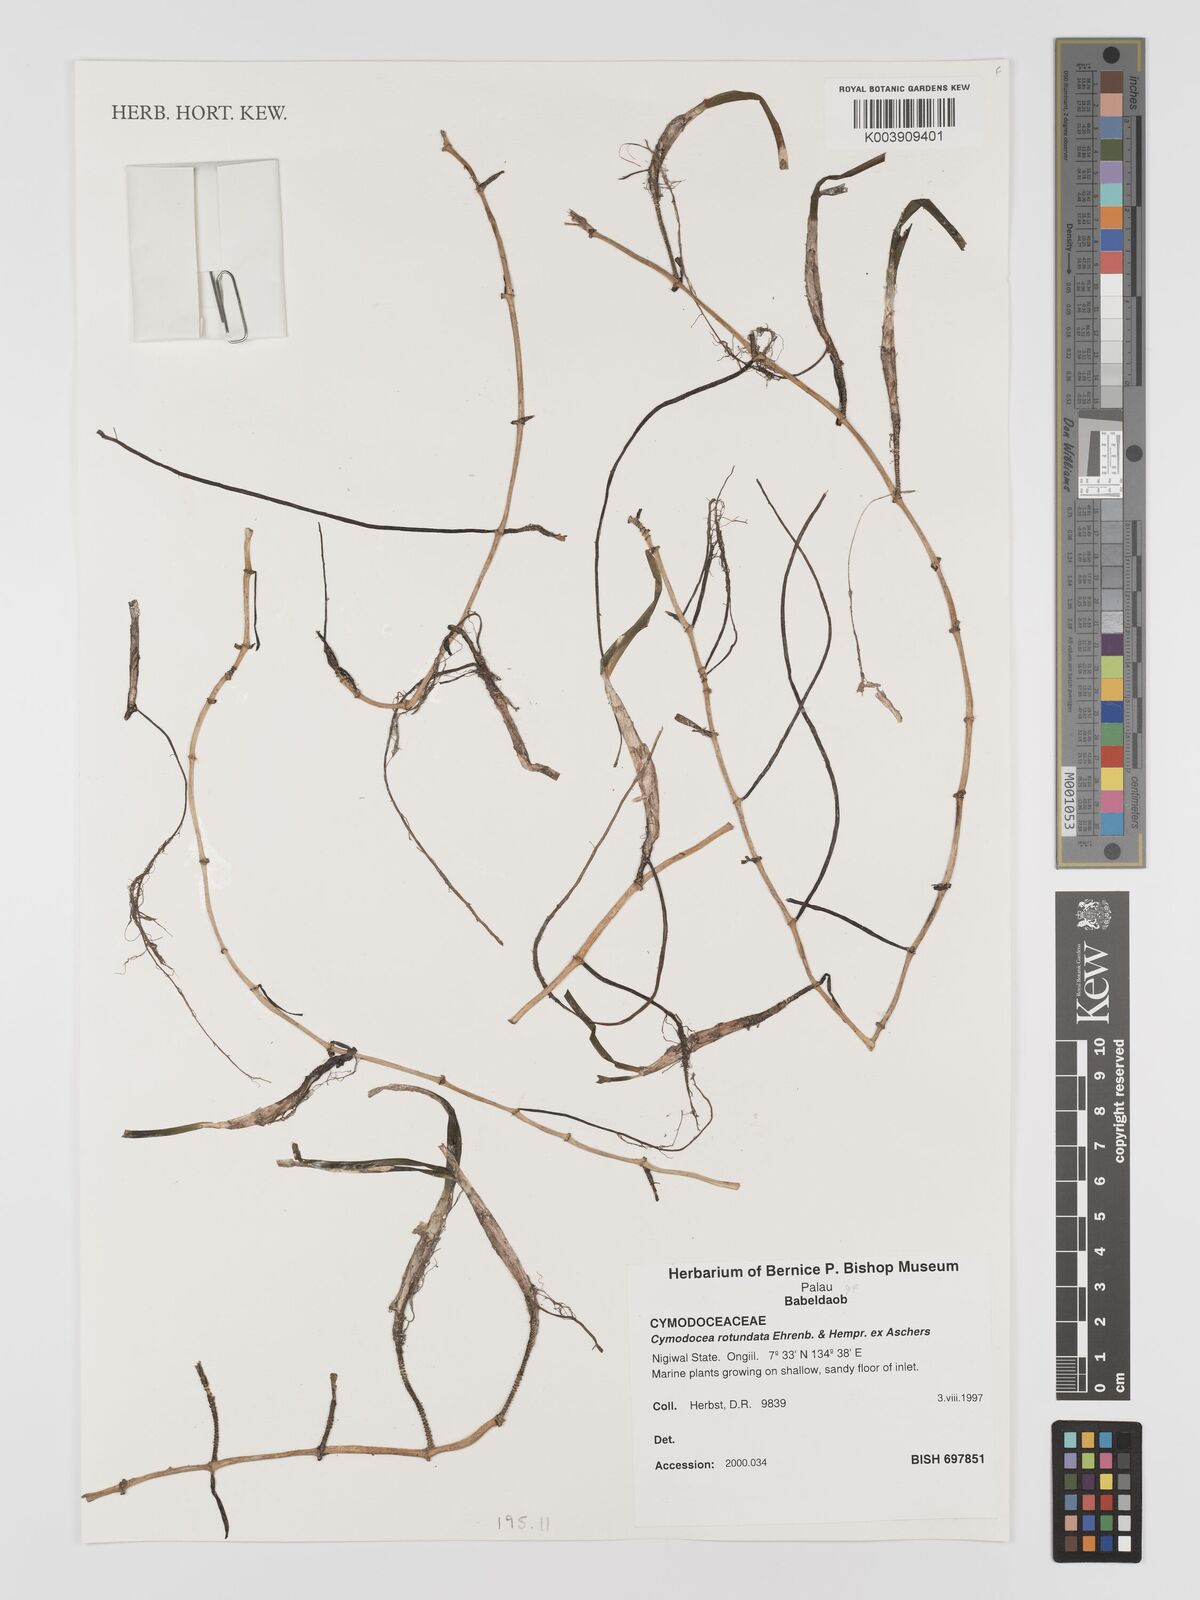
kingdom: Plantae
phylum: Tracheophyta
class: Liliopsida
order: Alismatales
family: Cymodoceaceae
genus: Cymodocea
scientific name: Cymodocea rotundata
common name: Species code: cr
